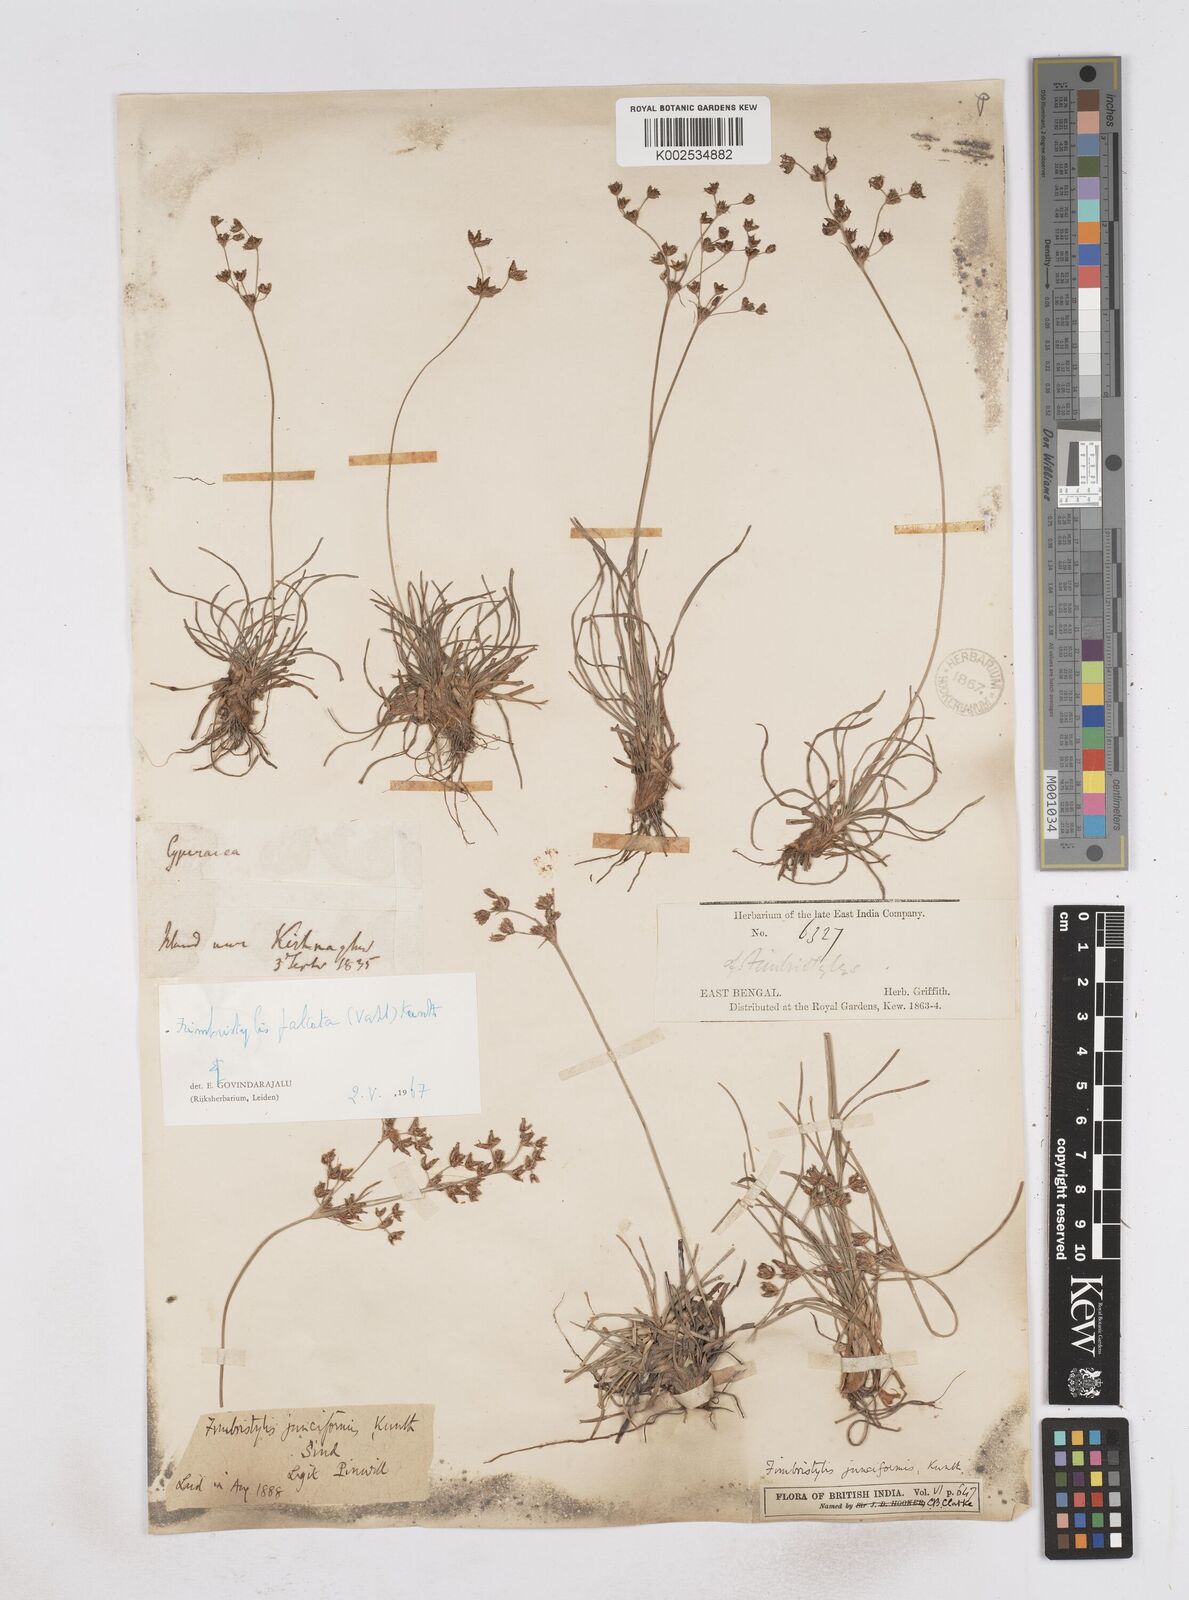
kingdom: Plantae
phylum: Tracheophyta
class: Liliopsida
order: Poales
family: Cyperaceae
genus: Fimbristylis
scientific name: Fimbristylis falcata
